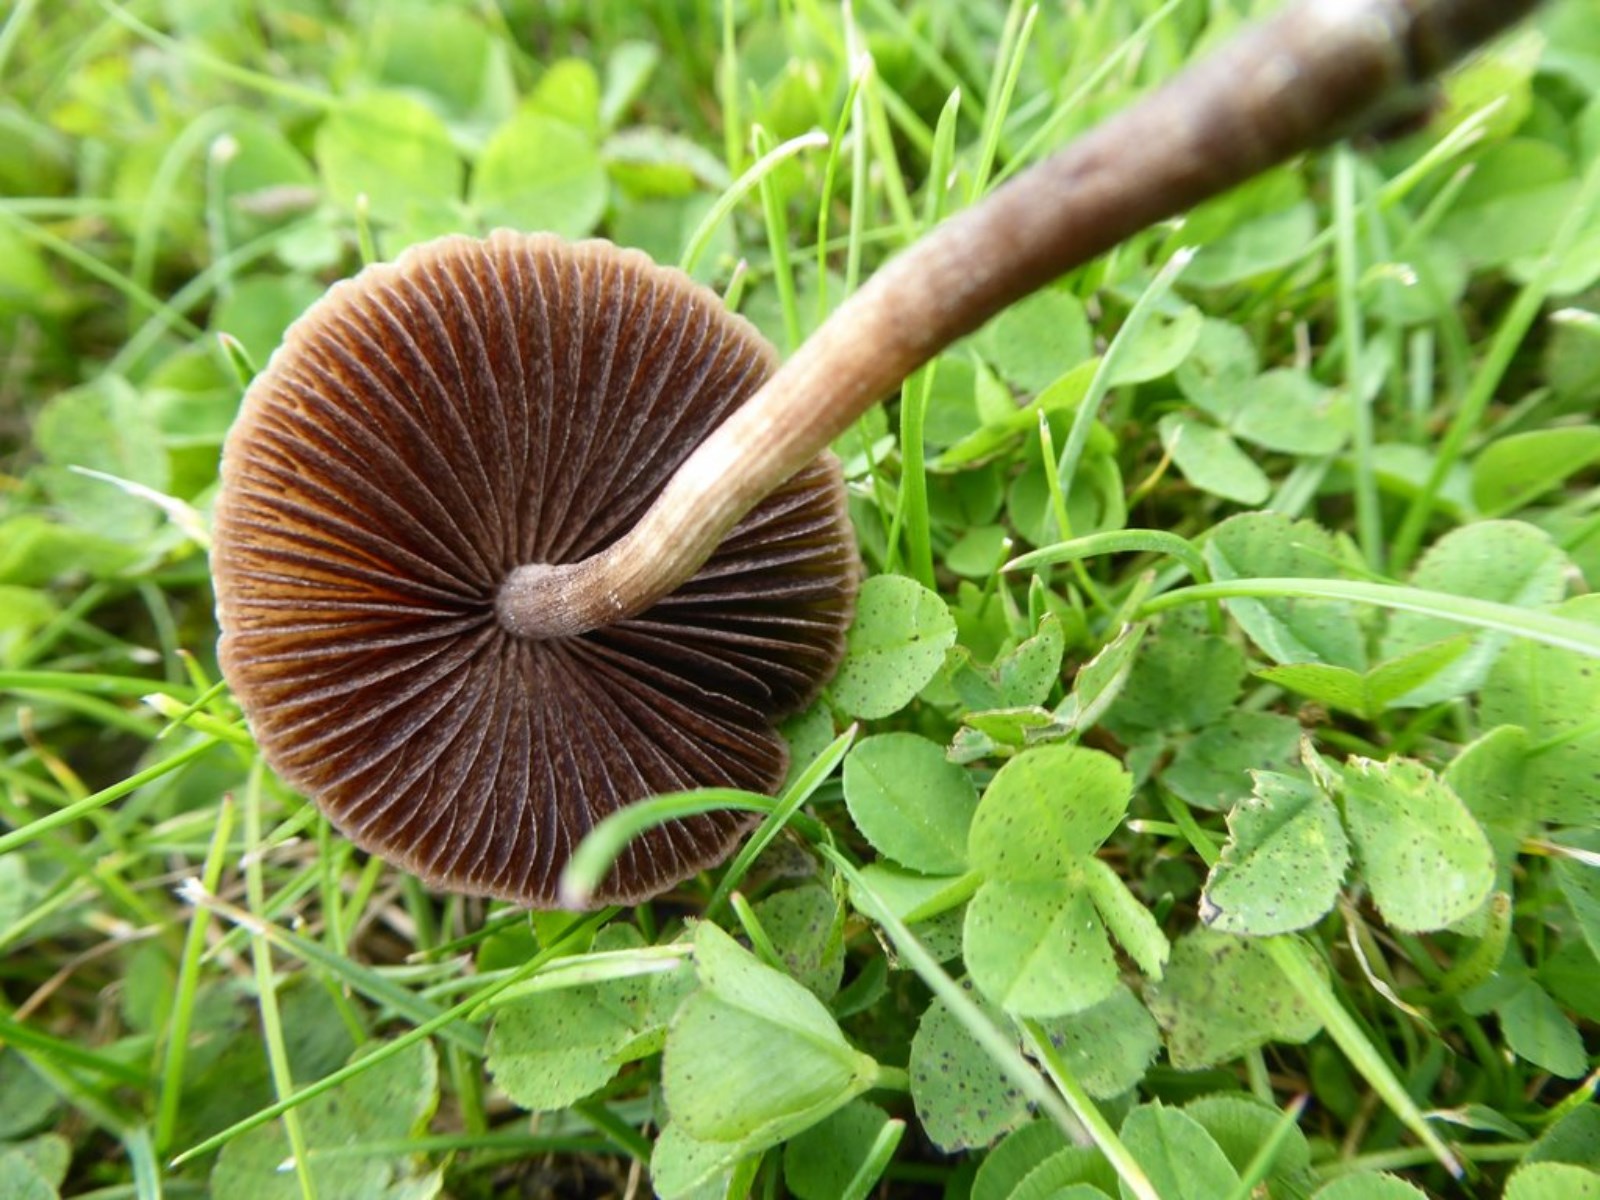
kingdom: Fungi
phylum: Basidiomycota
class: Agaricomycetes
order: Agaricales
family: Bolbitiaceae
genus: Panaeolina
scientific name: Panaeolina foenisecii
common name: høslætsvamp
